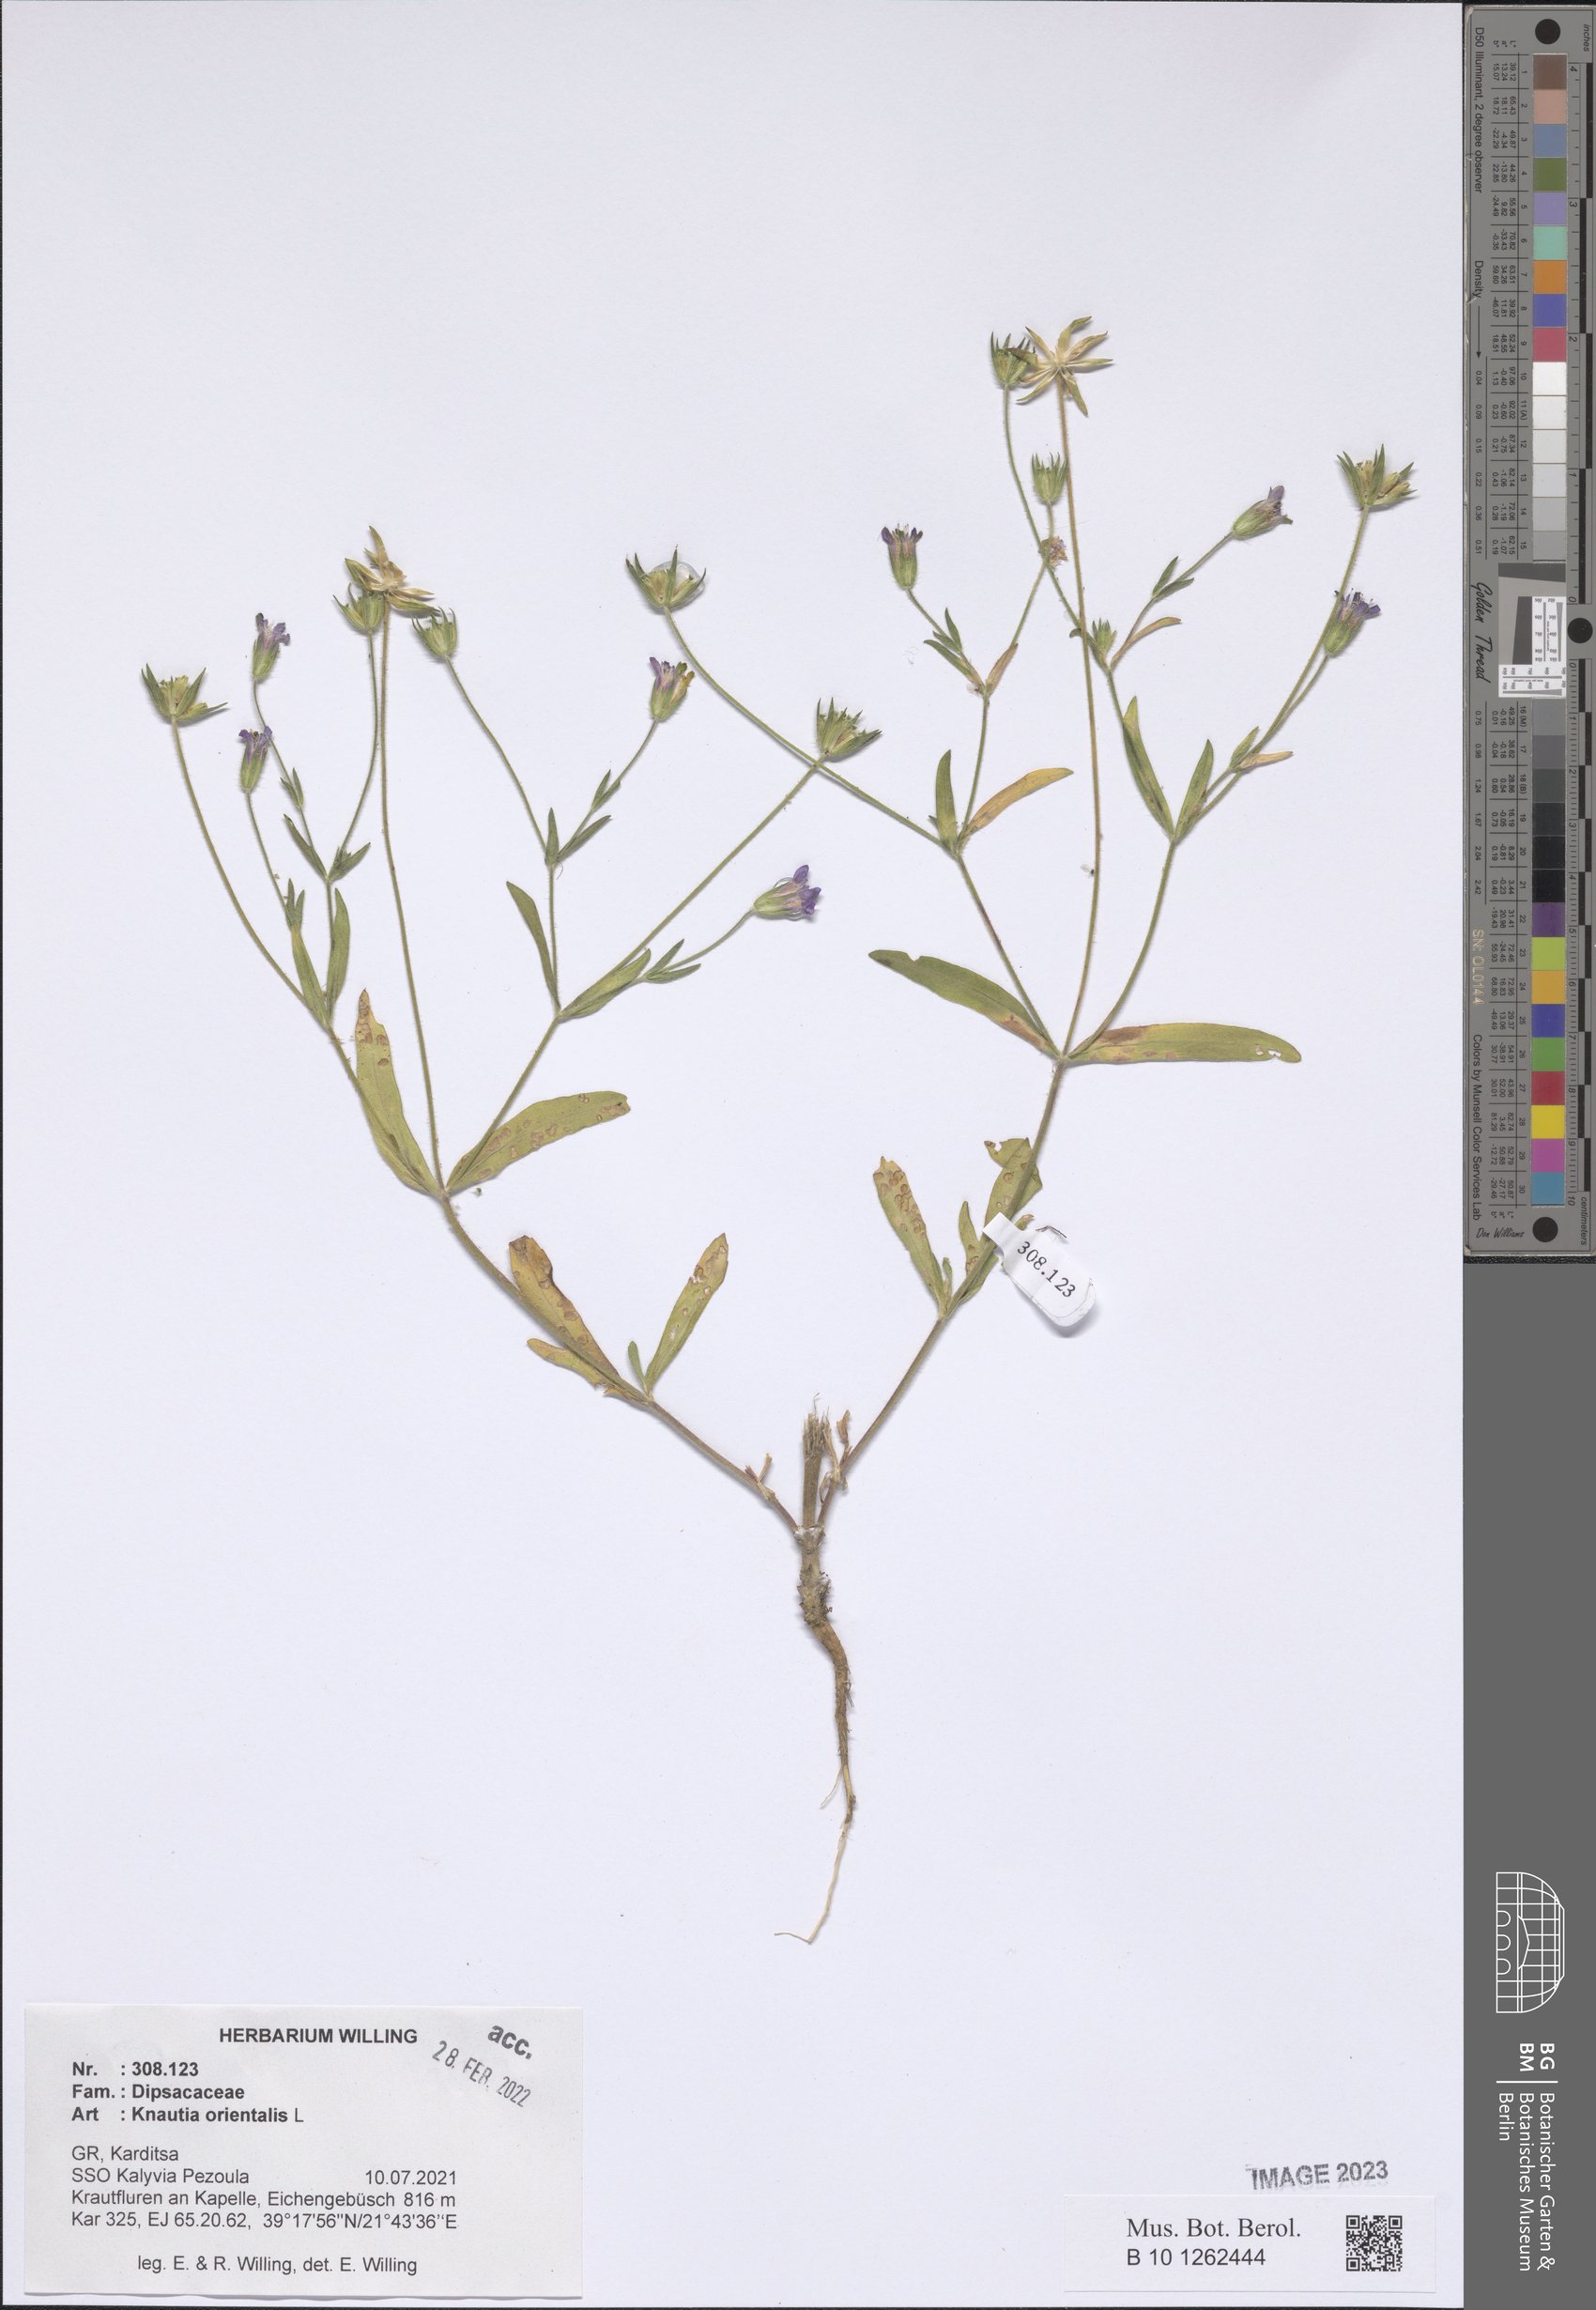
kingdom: Plantae
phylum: Tracheophyta
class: Magnoliopsida
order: Dipsacales
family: Caprifoliaceae
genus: Knautia
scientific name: Knautia orientalis
